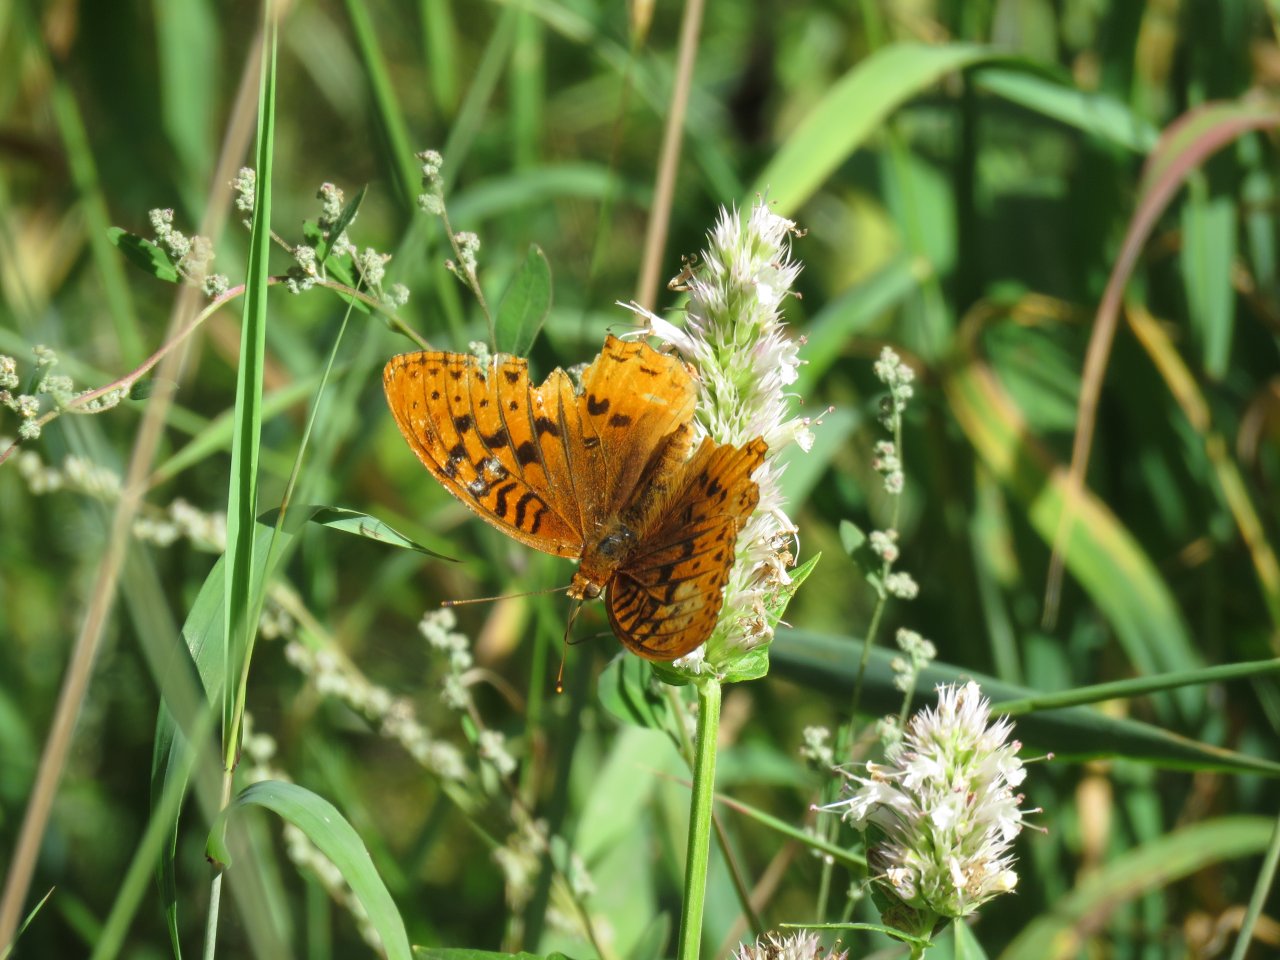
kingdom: Animalia
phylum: Arthropoda
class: Insecta
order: Lepidoptera
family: Nymphalidae
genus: Speyeria
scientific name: Speyeria cybele
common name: Great Spangled Fritillary
